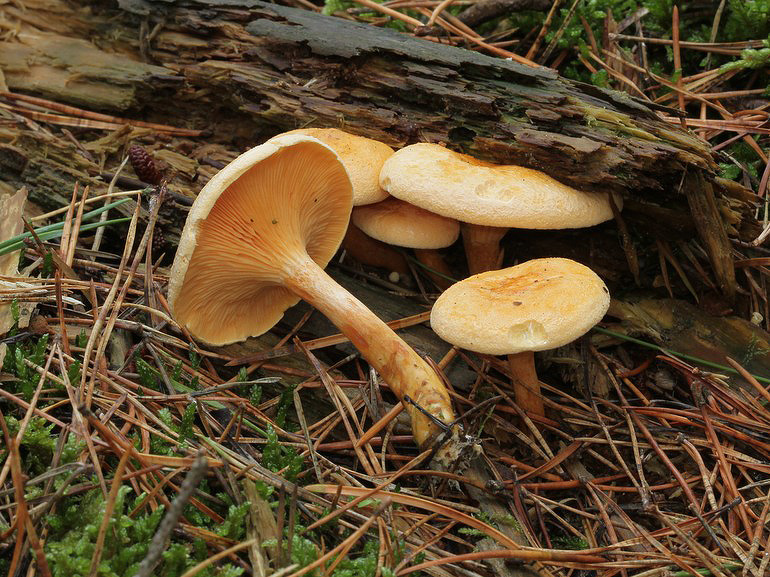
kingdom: Fungi
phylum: Basidiomycota
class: Agaricomycetes
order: Boletales
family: Hygrophoropsidaceae
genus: Hygrophoropsis
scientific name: Hygrophoropsis aurantiaca
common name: almindelig orangekantarel
